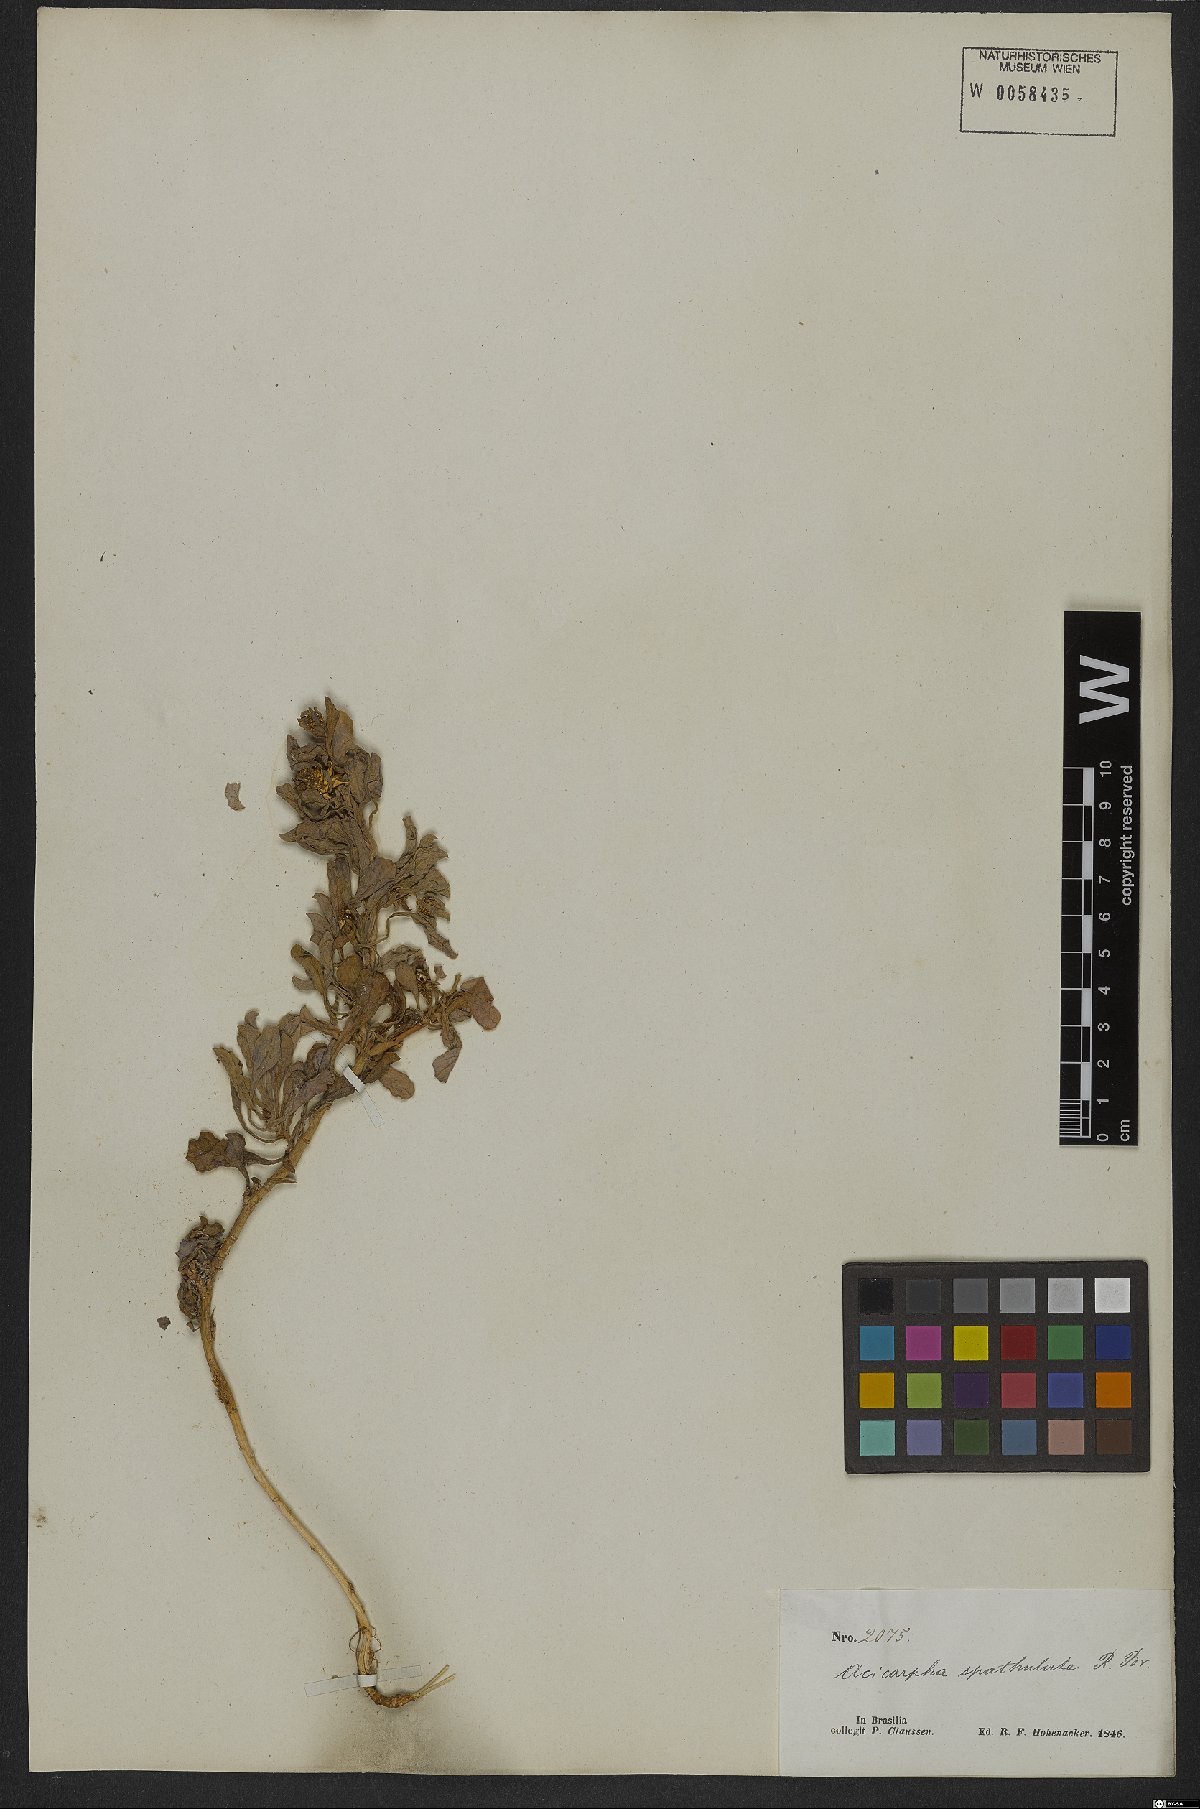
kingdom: Plantae
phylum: Tracheophyta
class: Magnoliopsida
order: Asterales
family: Calyceraceae
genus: Acicarpha
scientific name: Acicarpha spathulata
